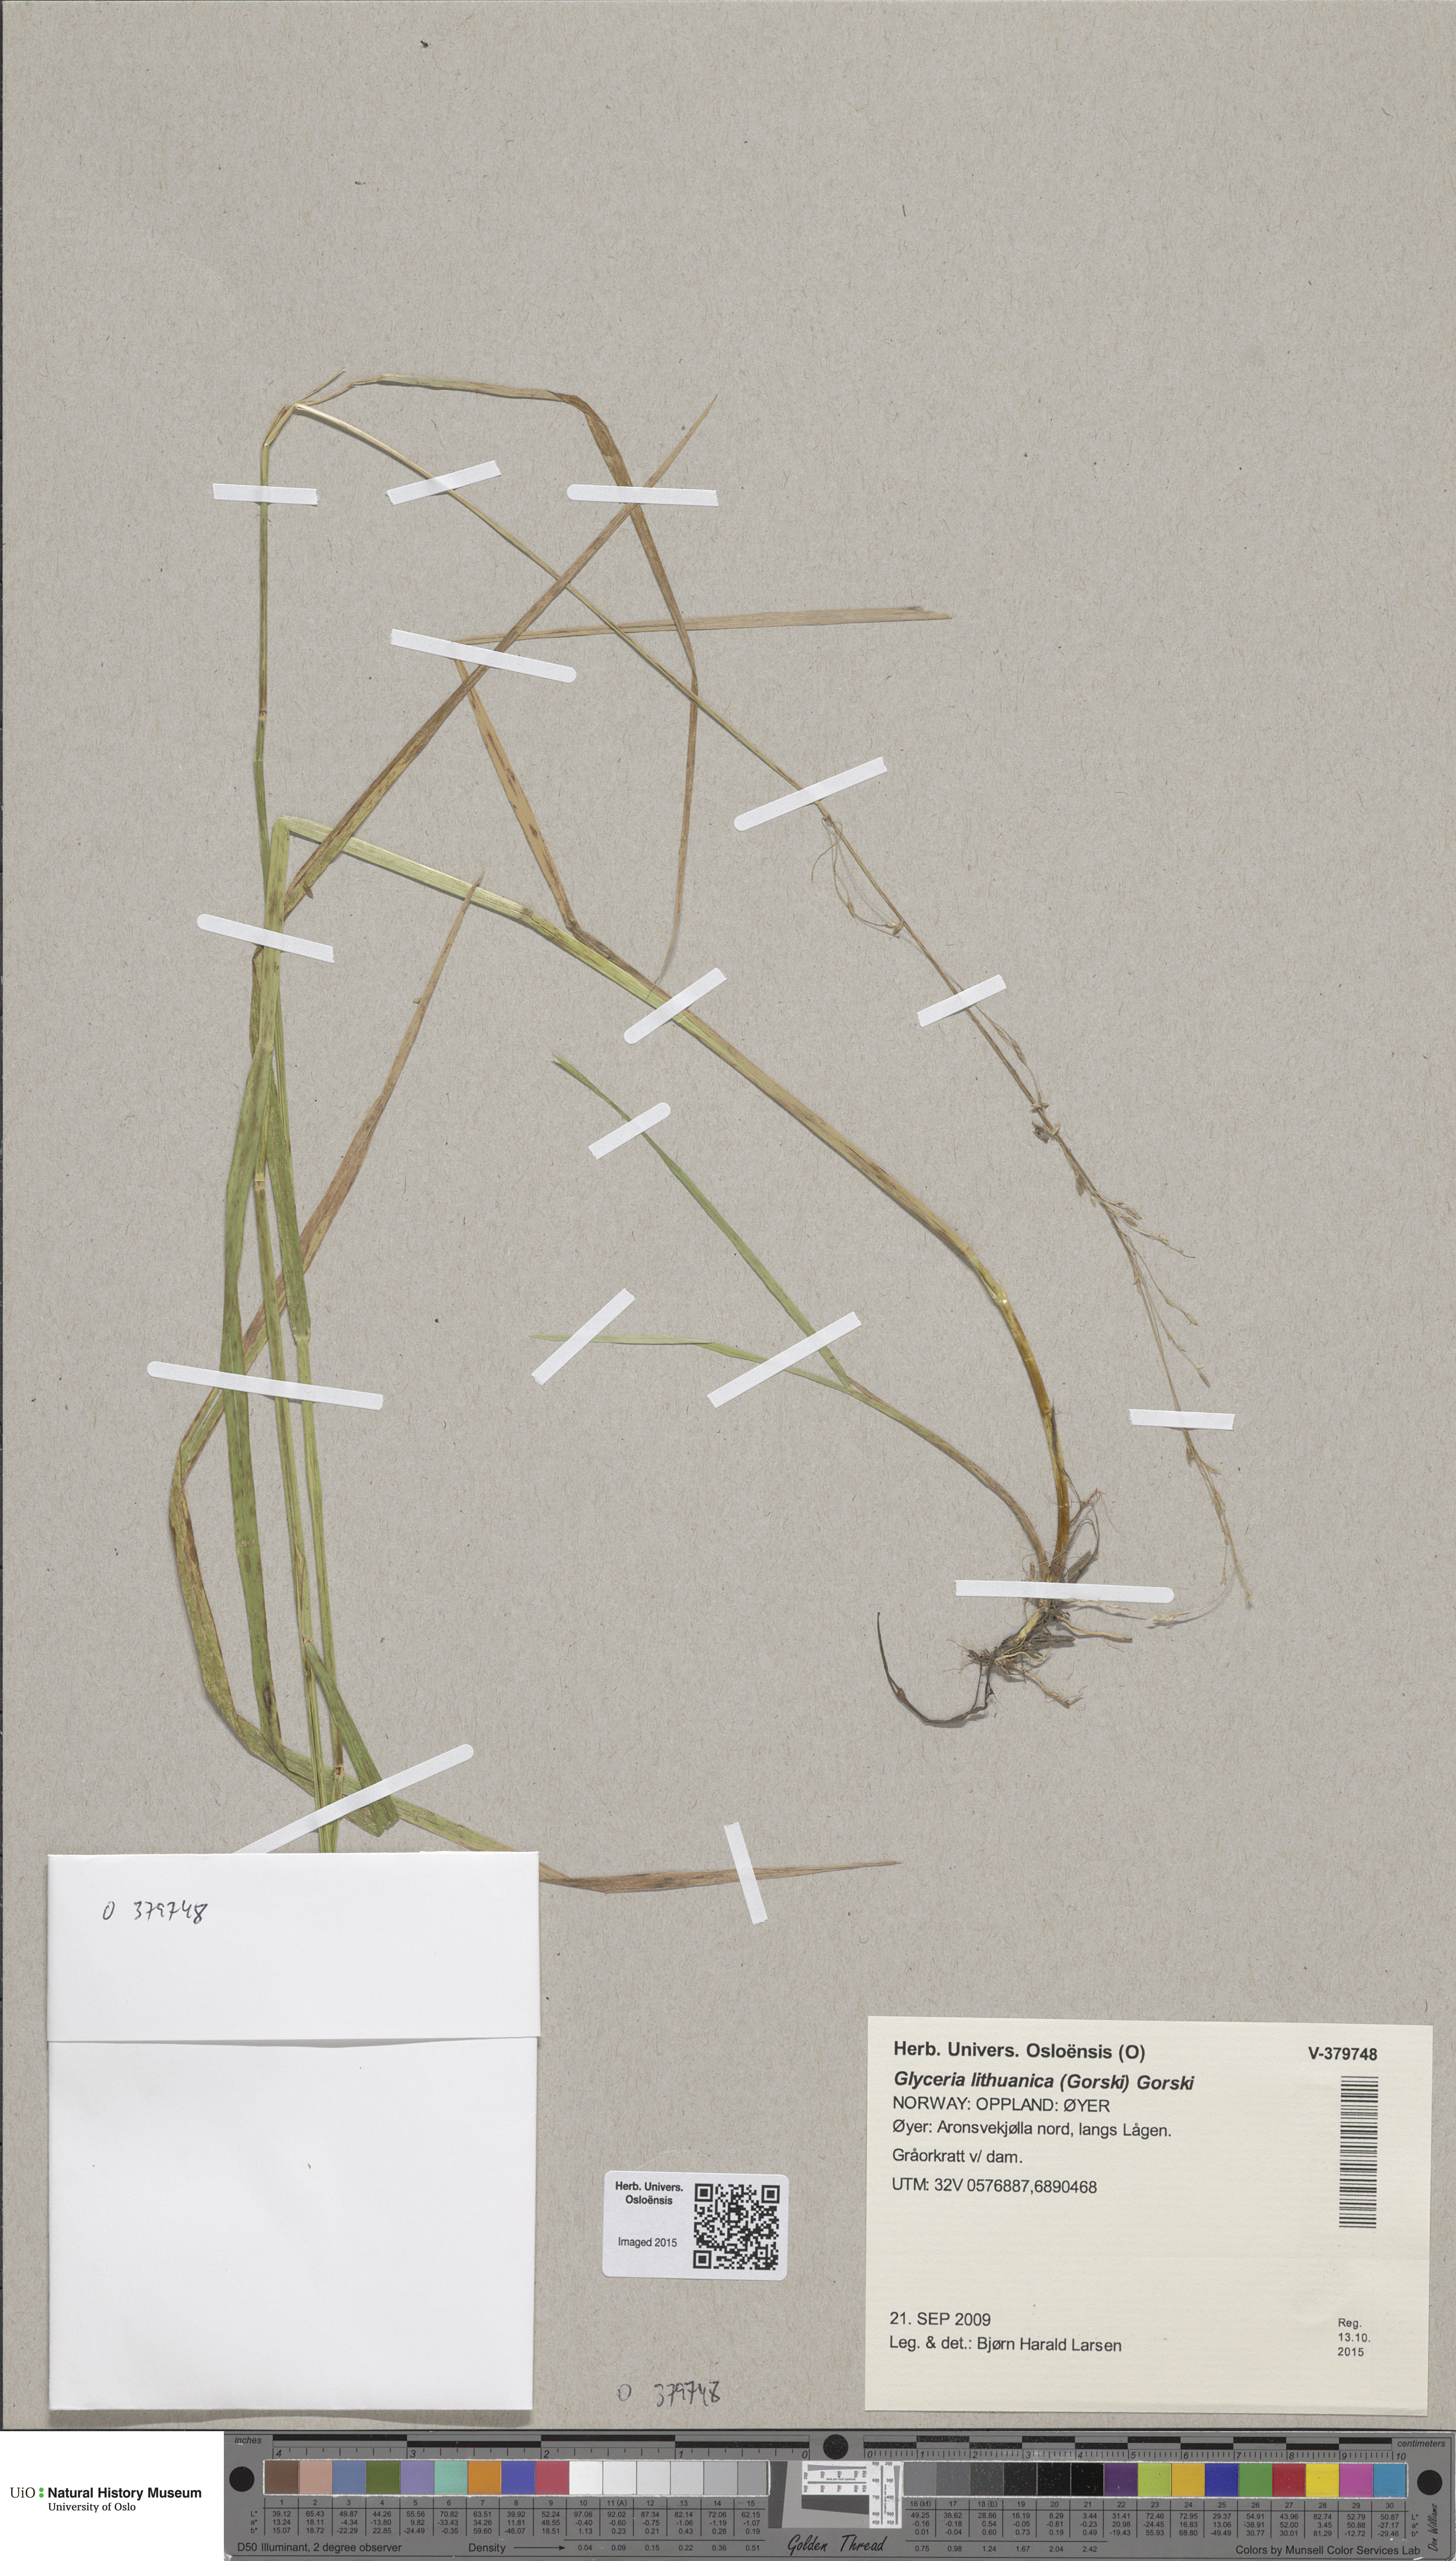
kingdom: Plantae
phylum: Tracheophyta
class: Liliopsida
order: Poales
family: Poaceae
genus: Glyceria
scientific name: Glyceria lithuanica
